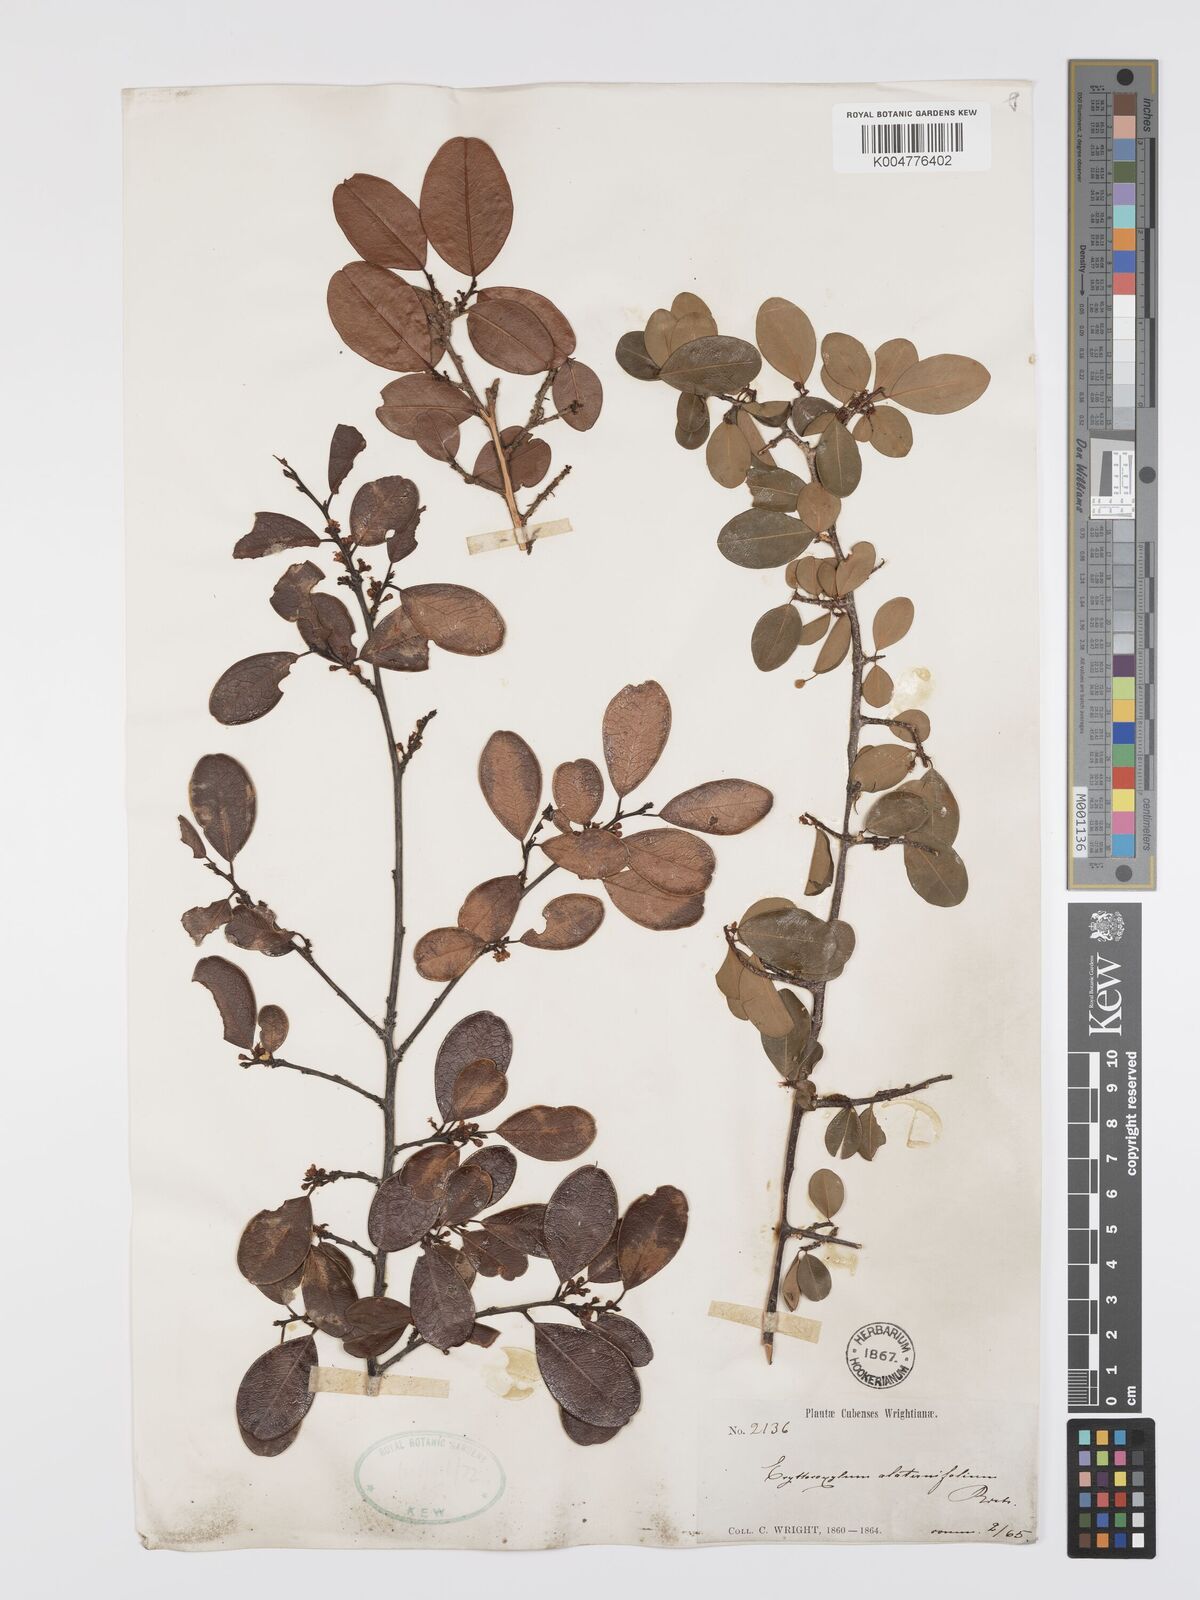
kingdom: Plantae
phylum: Tracheophyta
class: Magnoliopsida
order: Malpighiales
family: Erythroxylaceae
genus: Erythroxylum
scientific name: Erythroxylum alaternifolium
